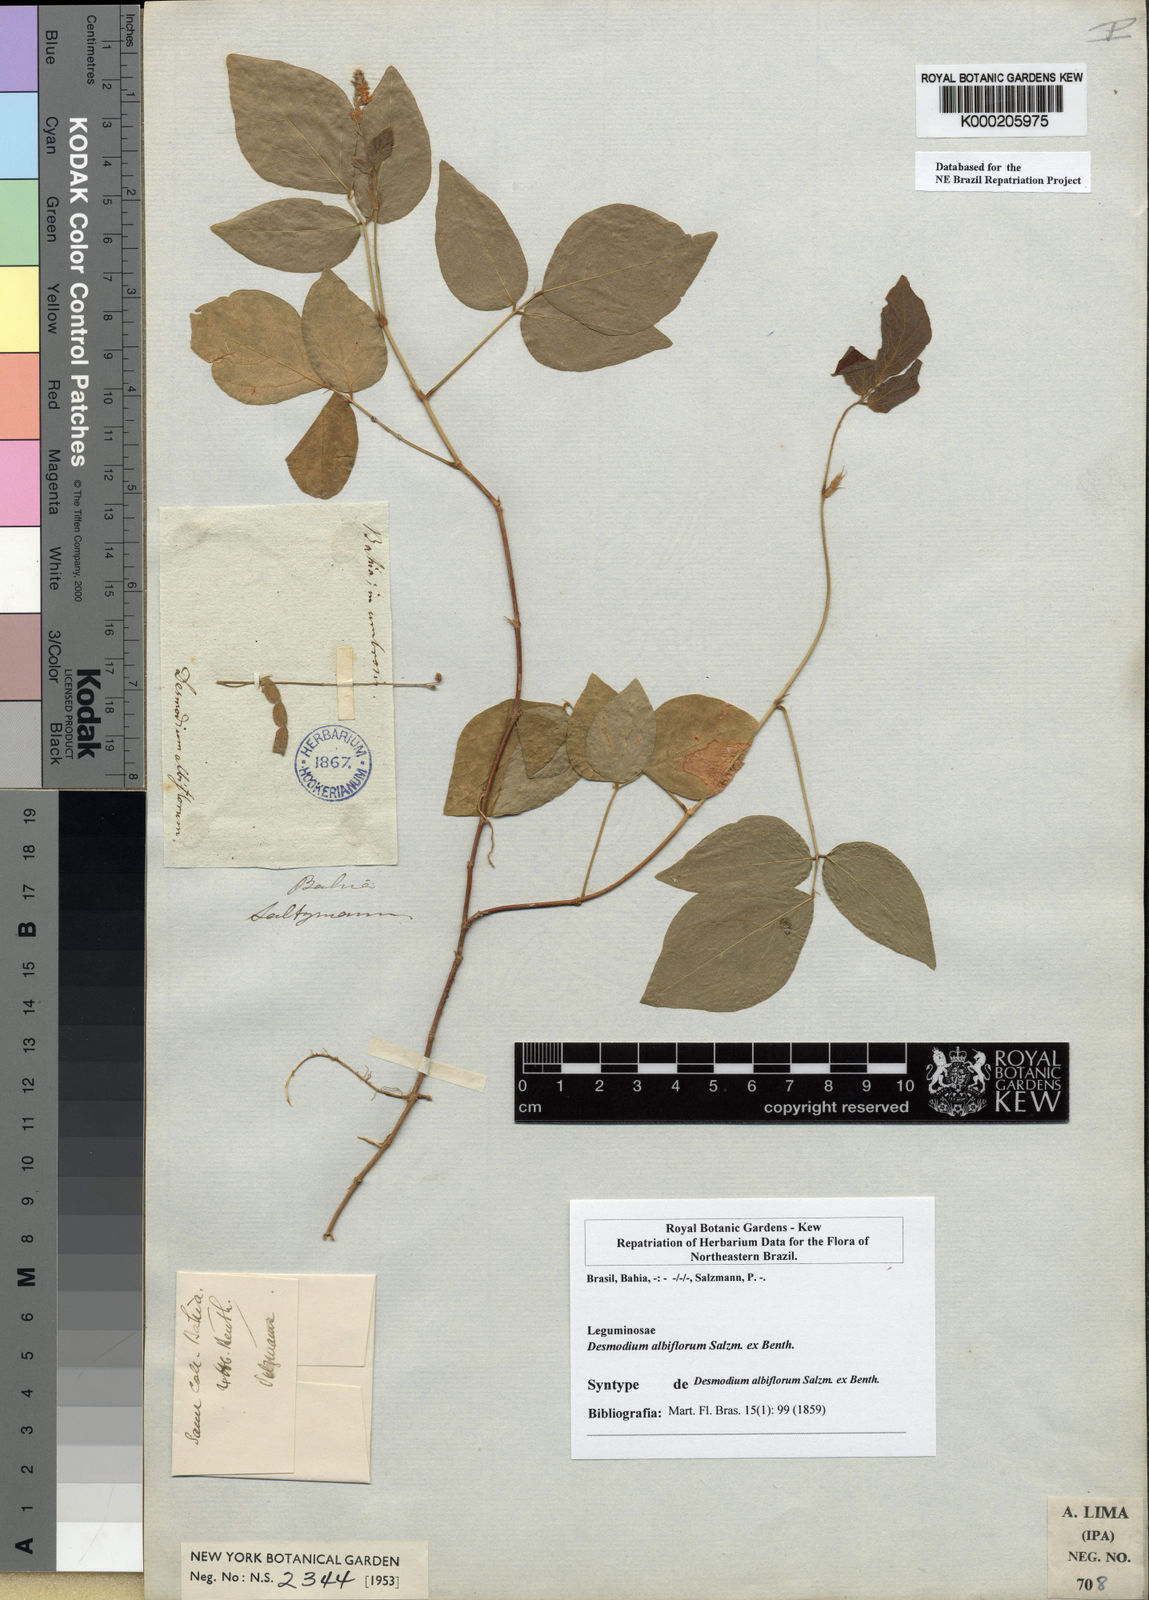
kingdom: Plantae
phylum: Tracheophyta
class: Magnoliopsida
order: Fabales
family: Fabaceae
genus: Desmodium
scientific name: Desmodium affine
